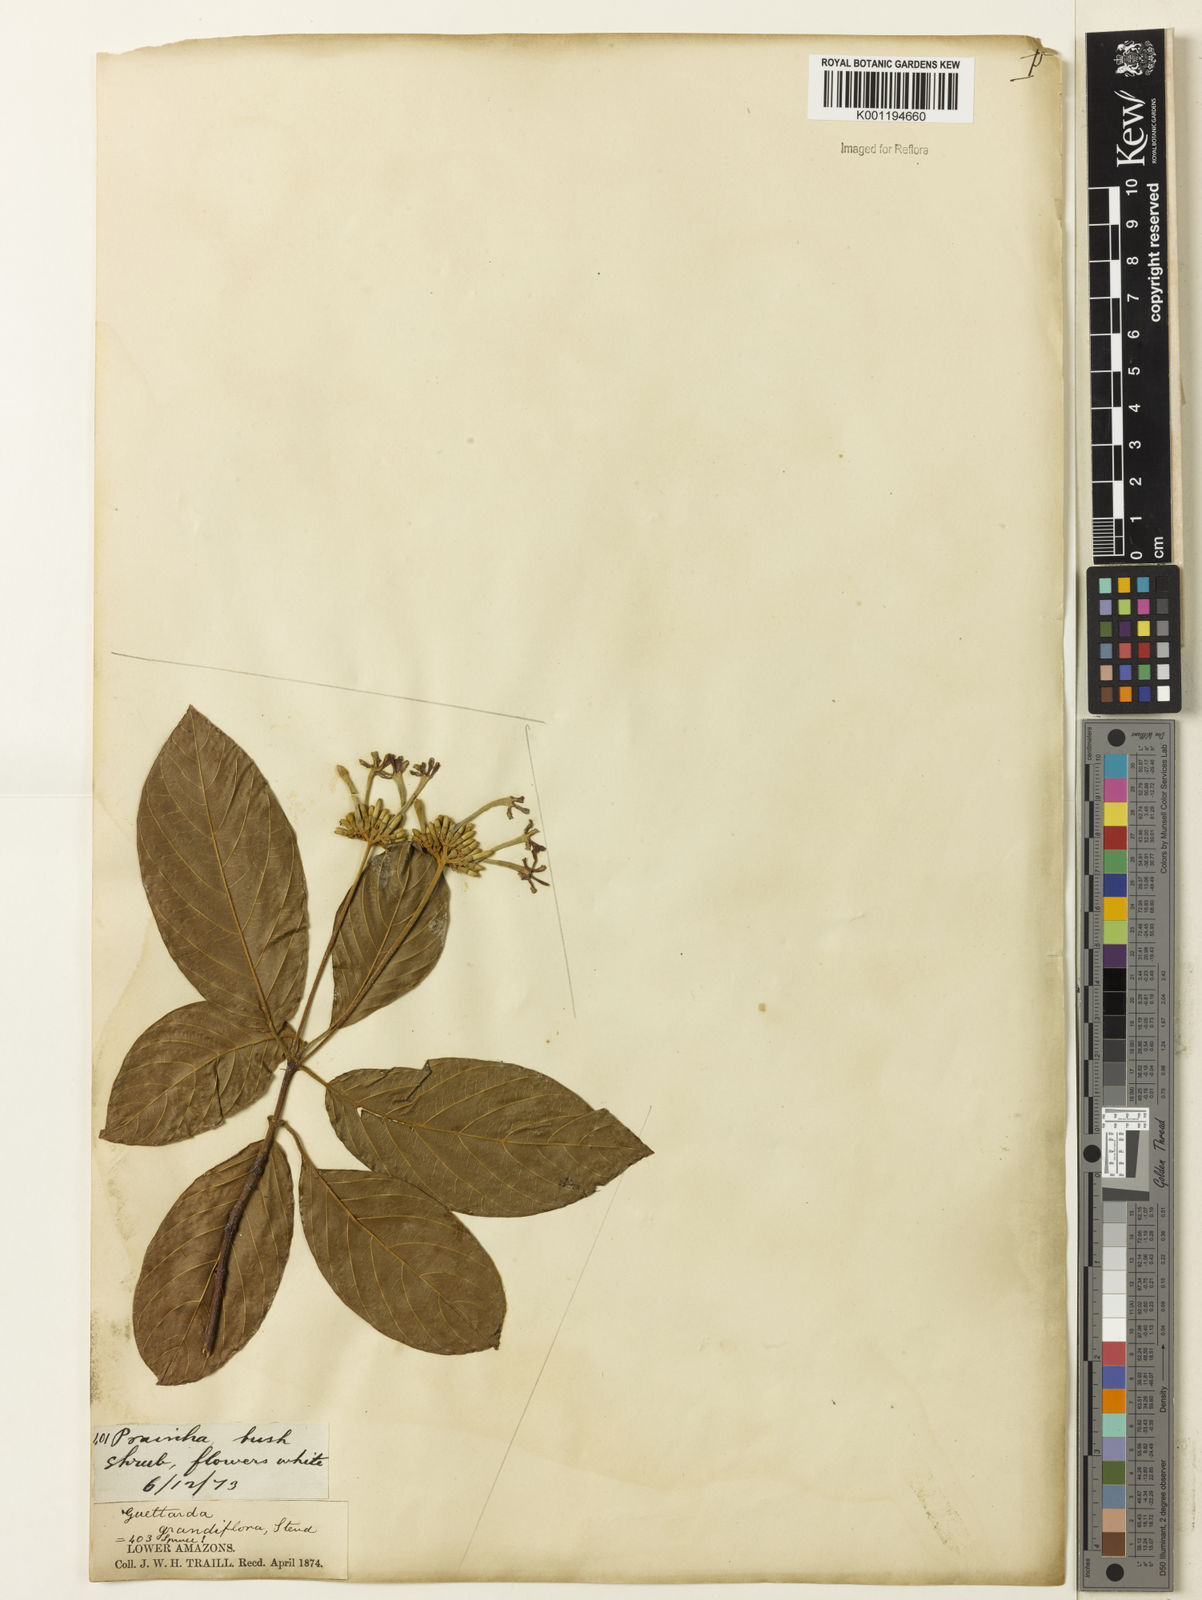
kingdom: Plantae
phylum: Tracheophyta
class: Magnoliopsida
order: Gentianales
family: Rubiaceae
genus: Guettarda
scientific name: Guettarda aromatica
